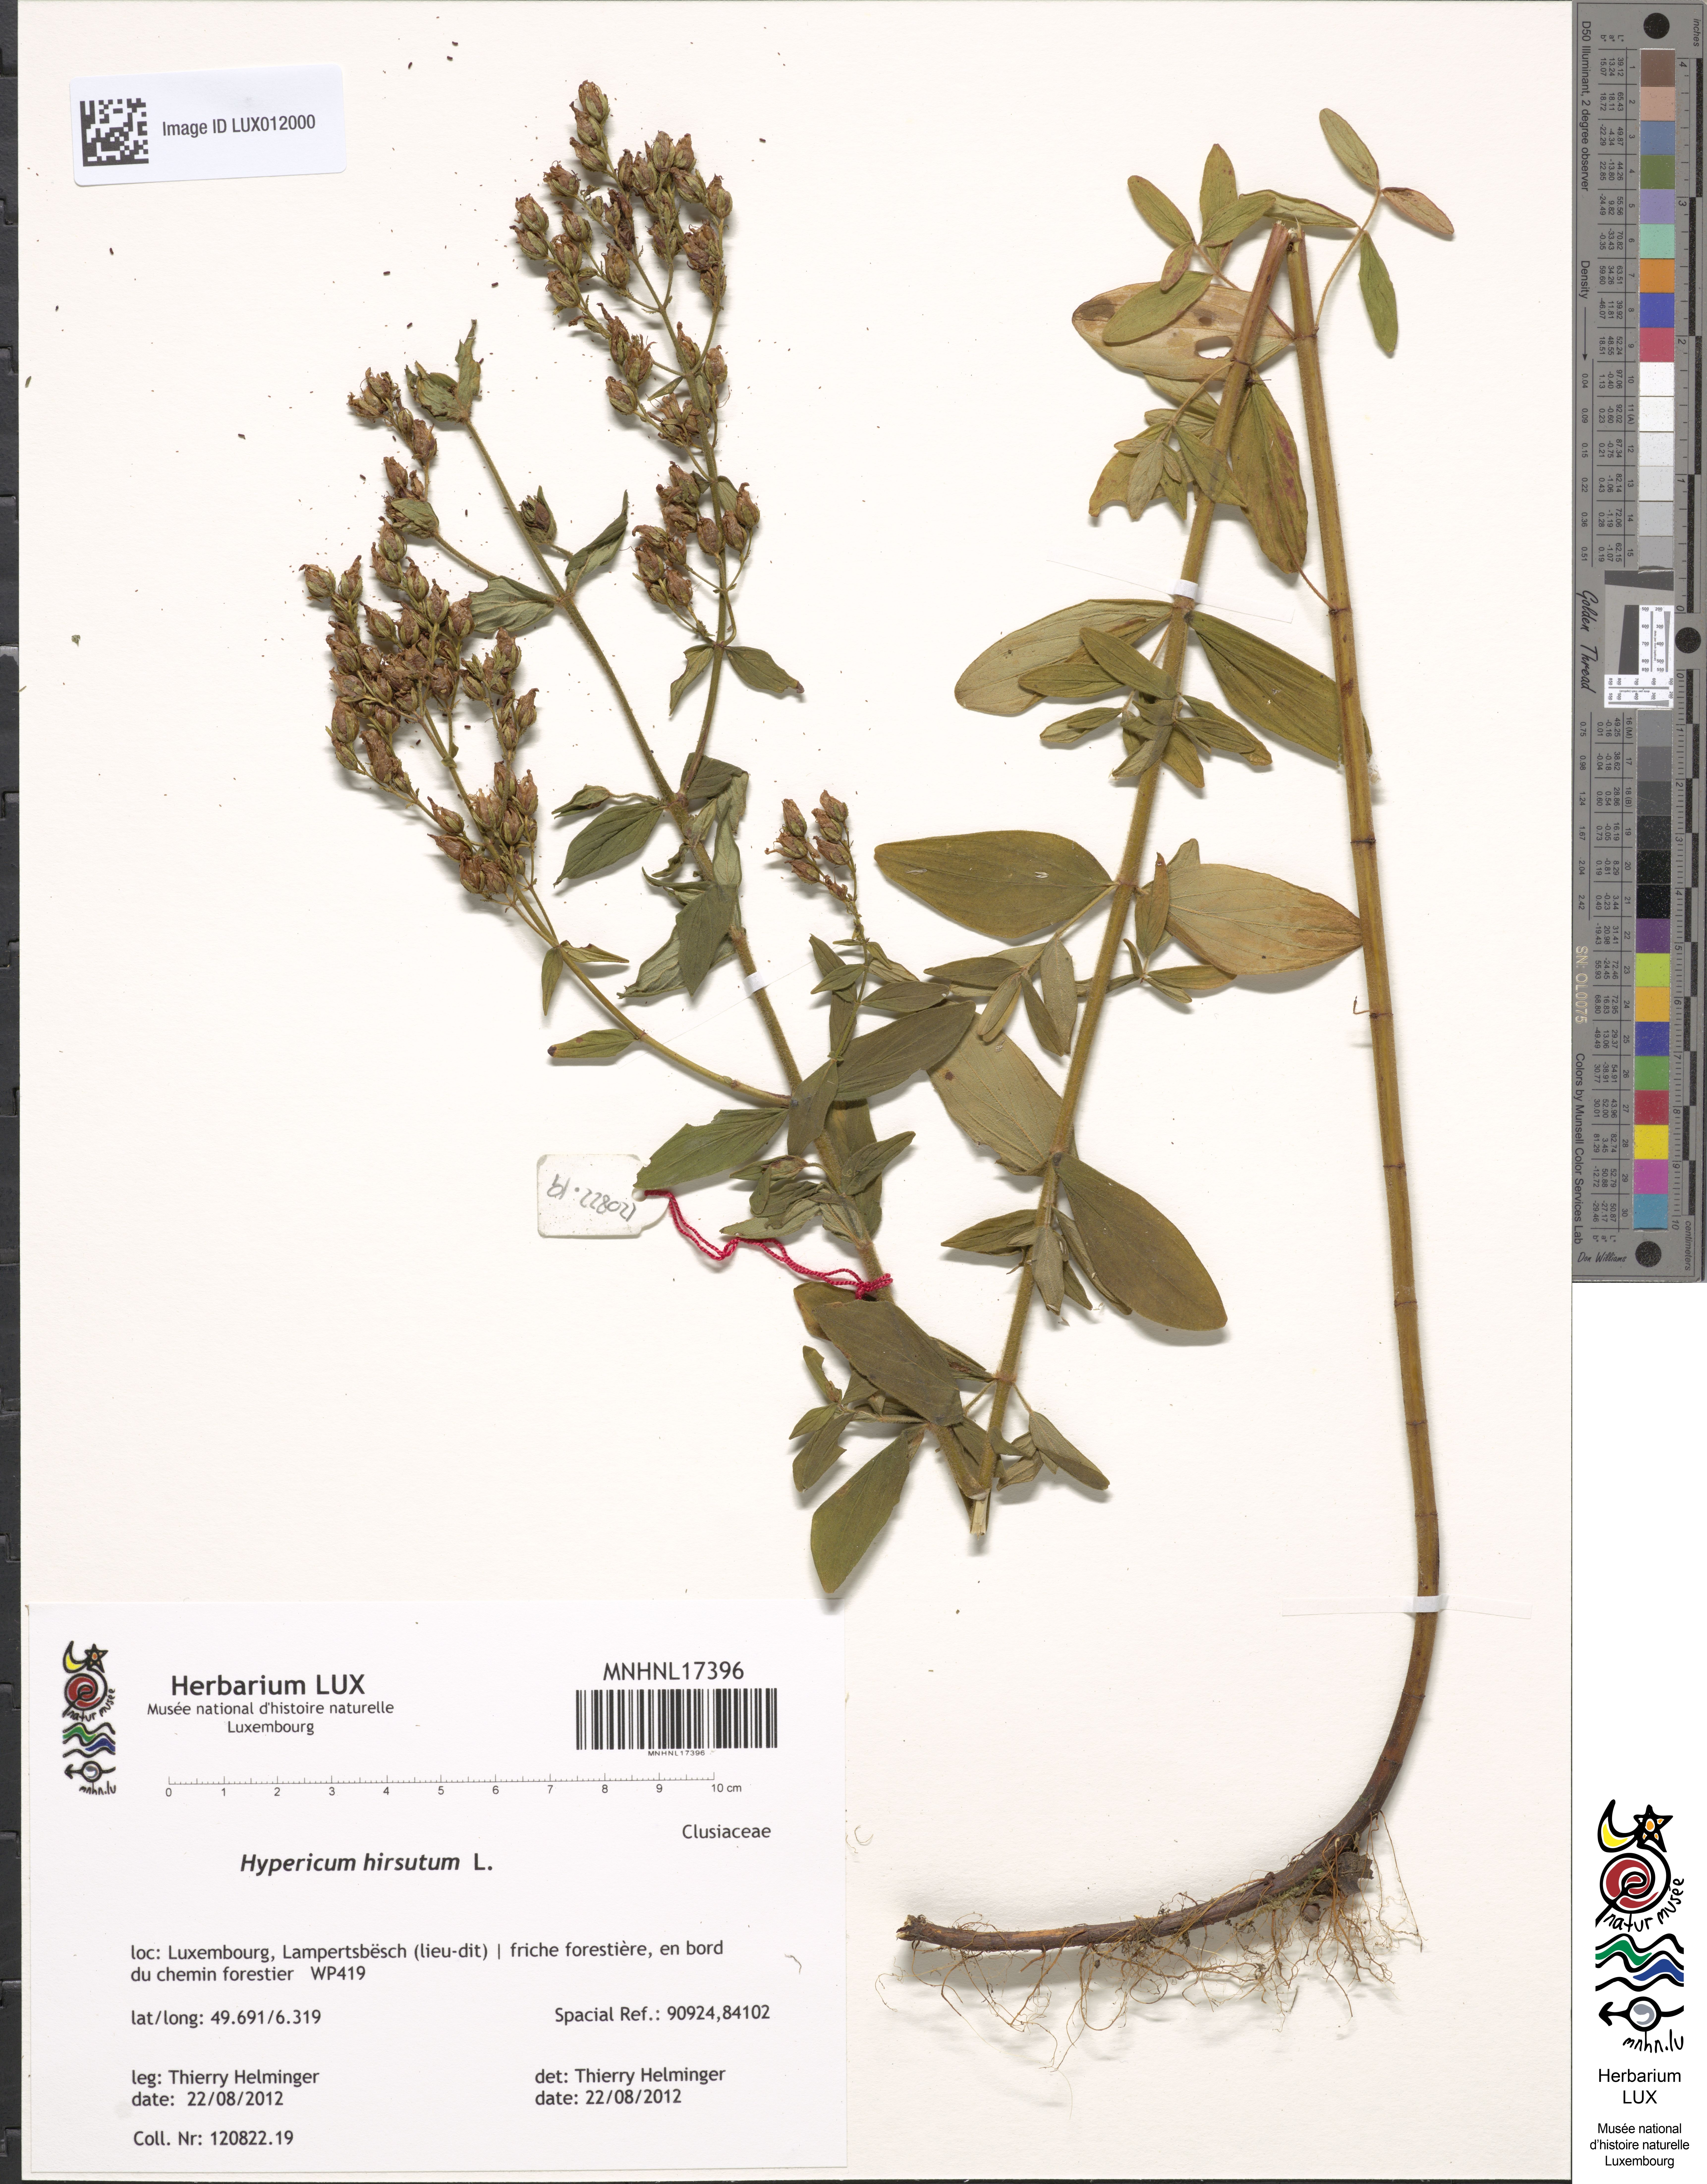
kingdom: Plantae
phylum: Tracheophyta
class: Magnoliopsida
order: Malpighiales
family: Hypericaceae
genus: Hypericum
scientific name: Hypericum hirsutum
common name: Hairy st. john's-wort
